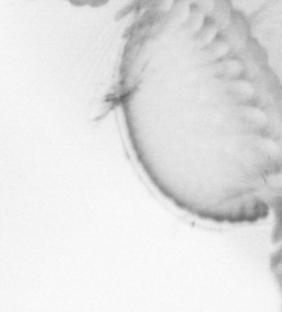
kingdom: Animalia
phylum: Arthropoda
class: Copepoda
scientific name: Copepoda
